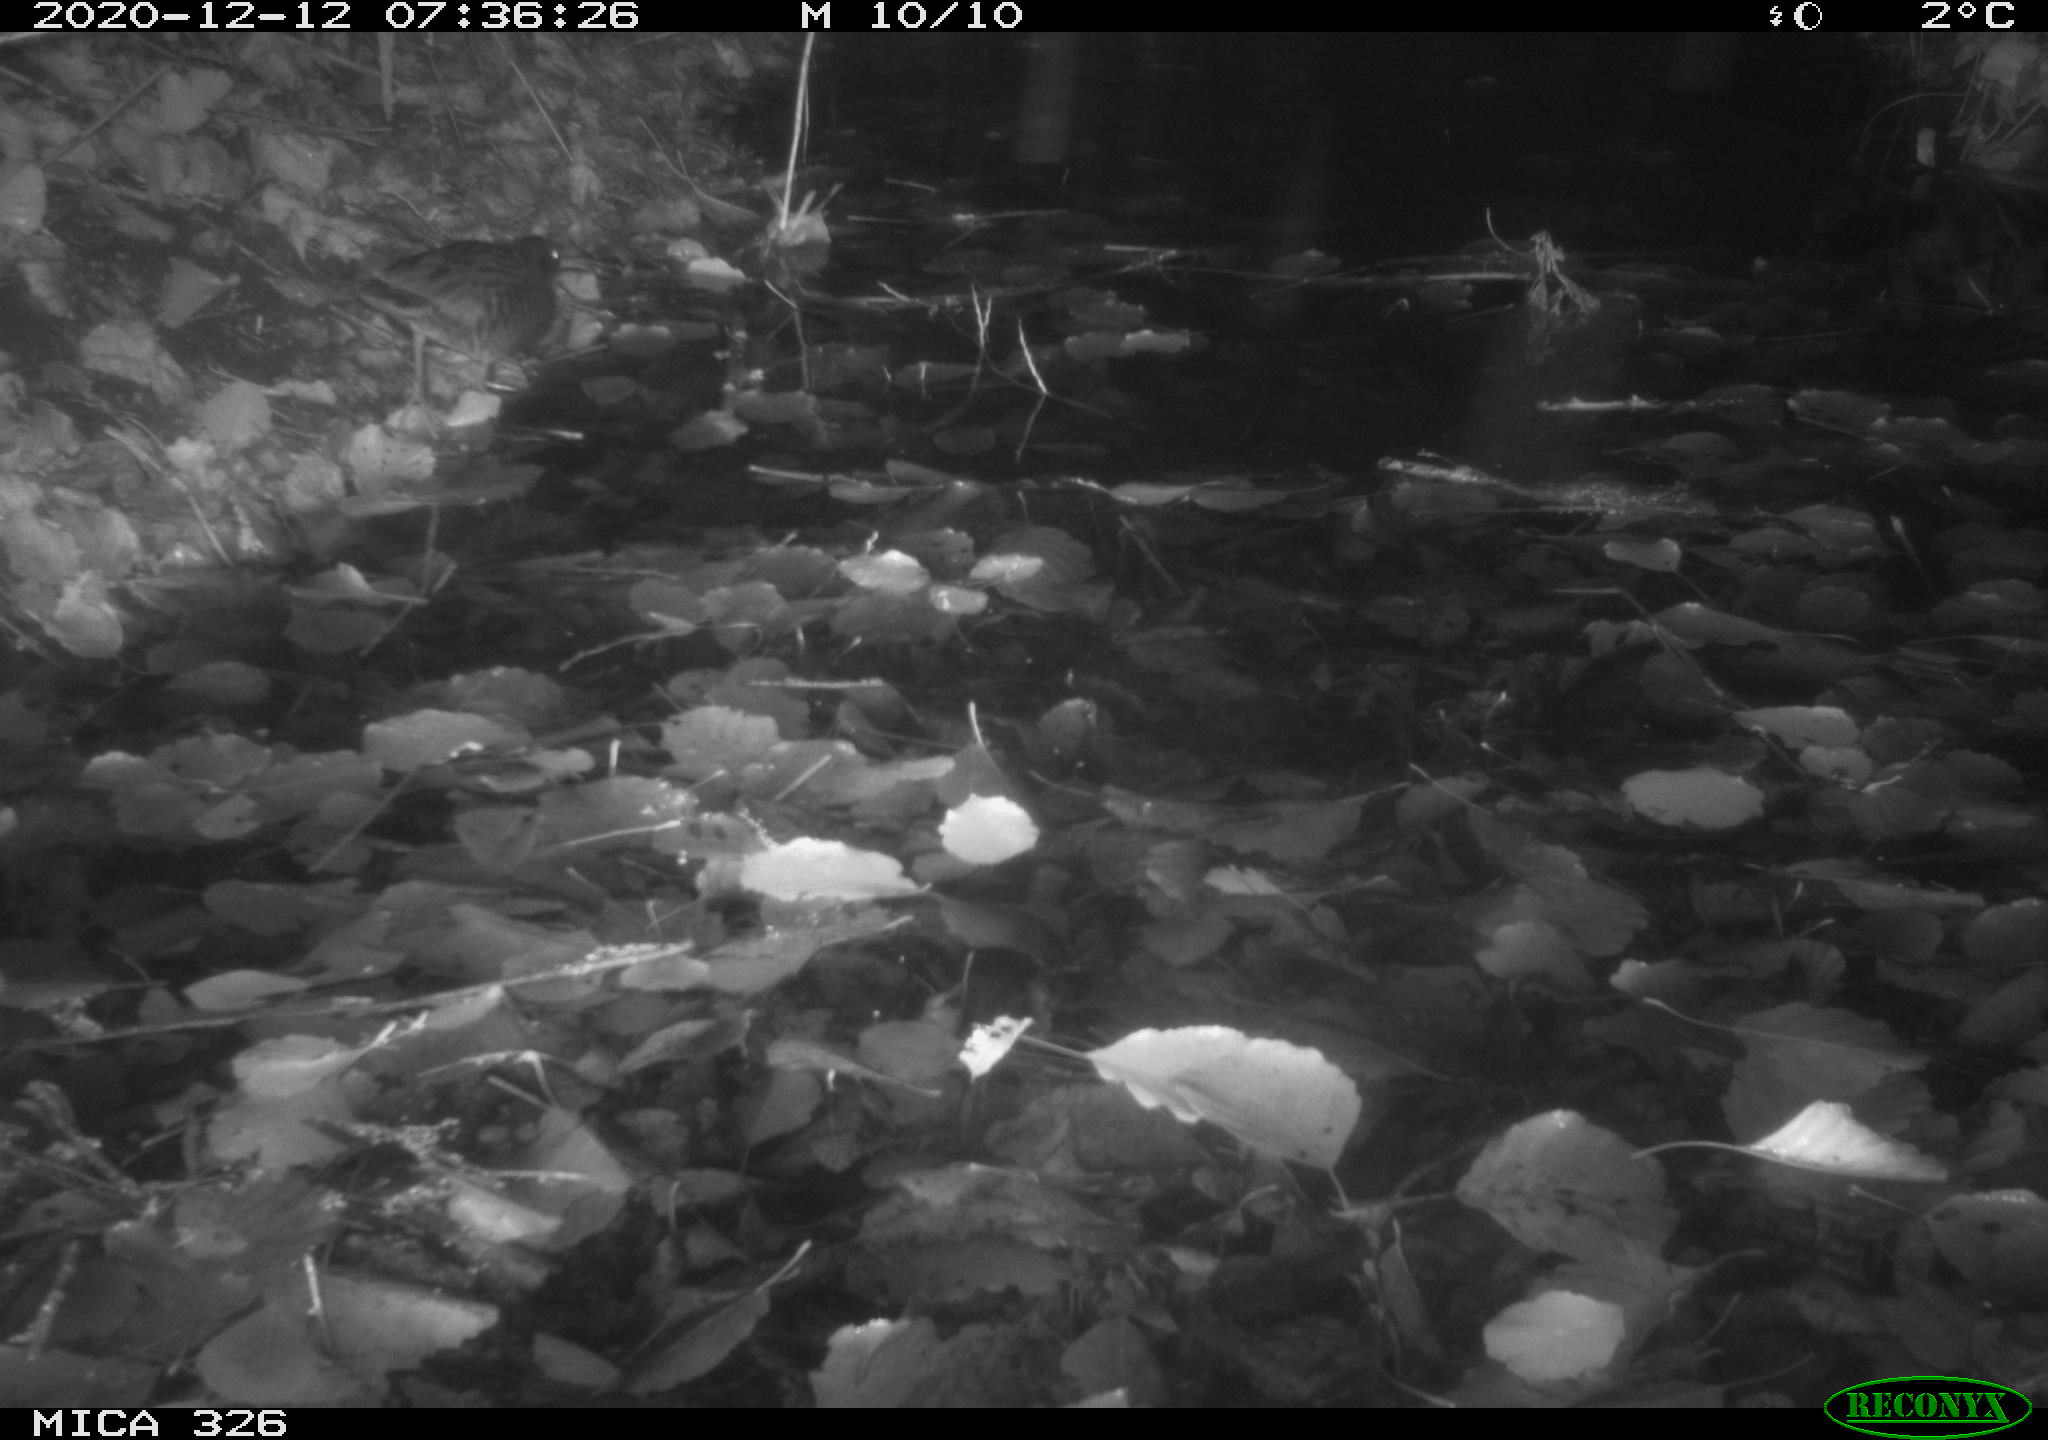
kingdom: Animalia
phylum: Chordata
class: Aves
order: Gruiformes
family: Rallidae
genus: Rallus
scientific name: Rallus aquaticus
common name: Water rail
